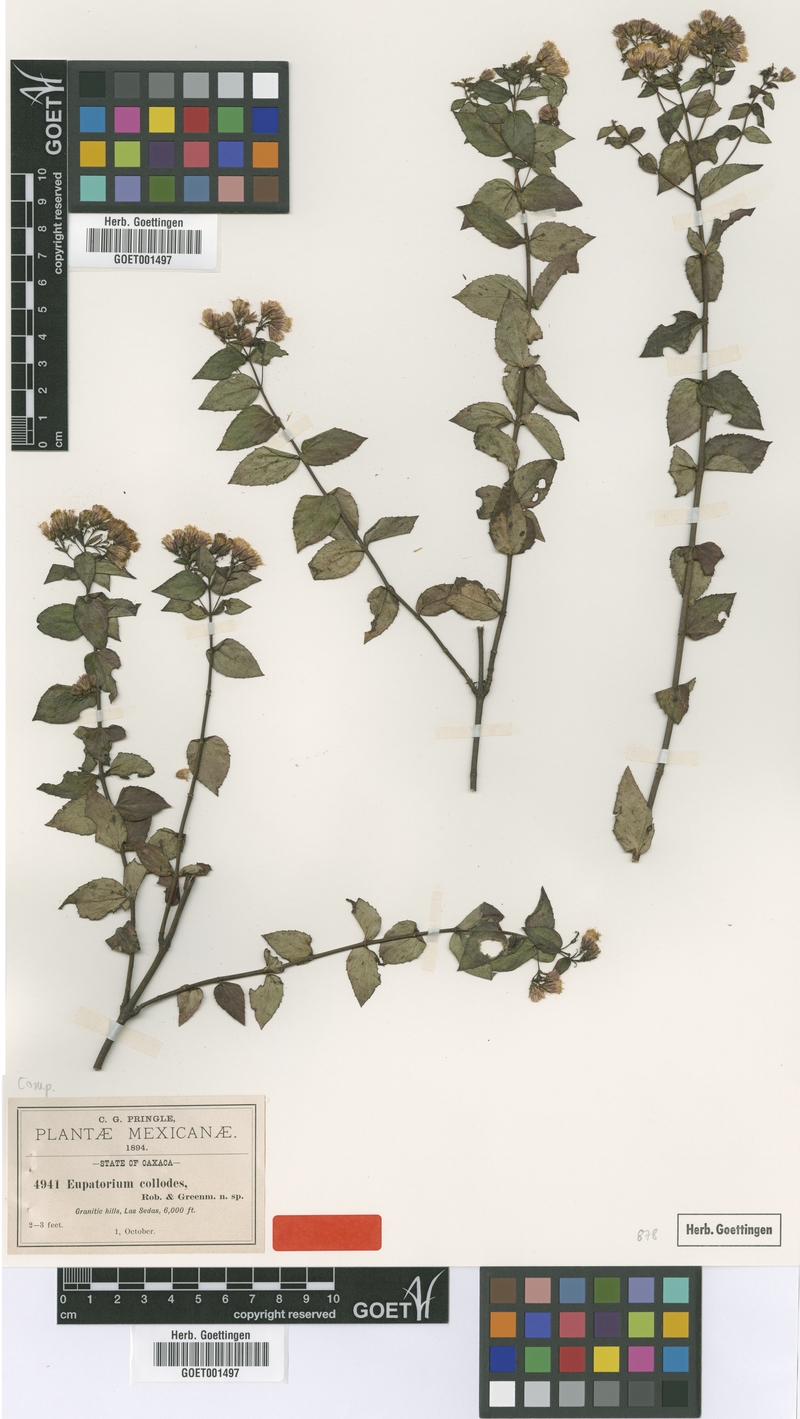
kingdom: Plantae
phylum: Tracheophyta
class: Magnoliopsida
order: Asterales
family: Asteraceae
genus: Ageratina
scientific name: Ageratina collodes
